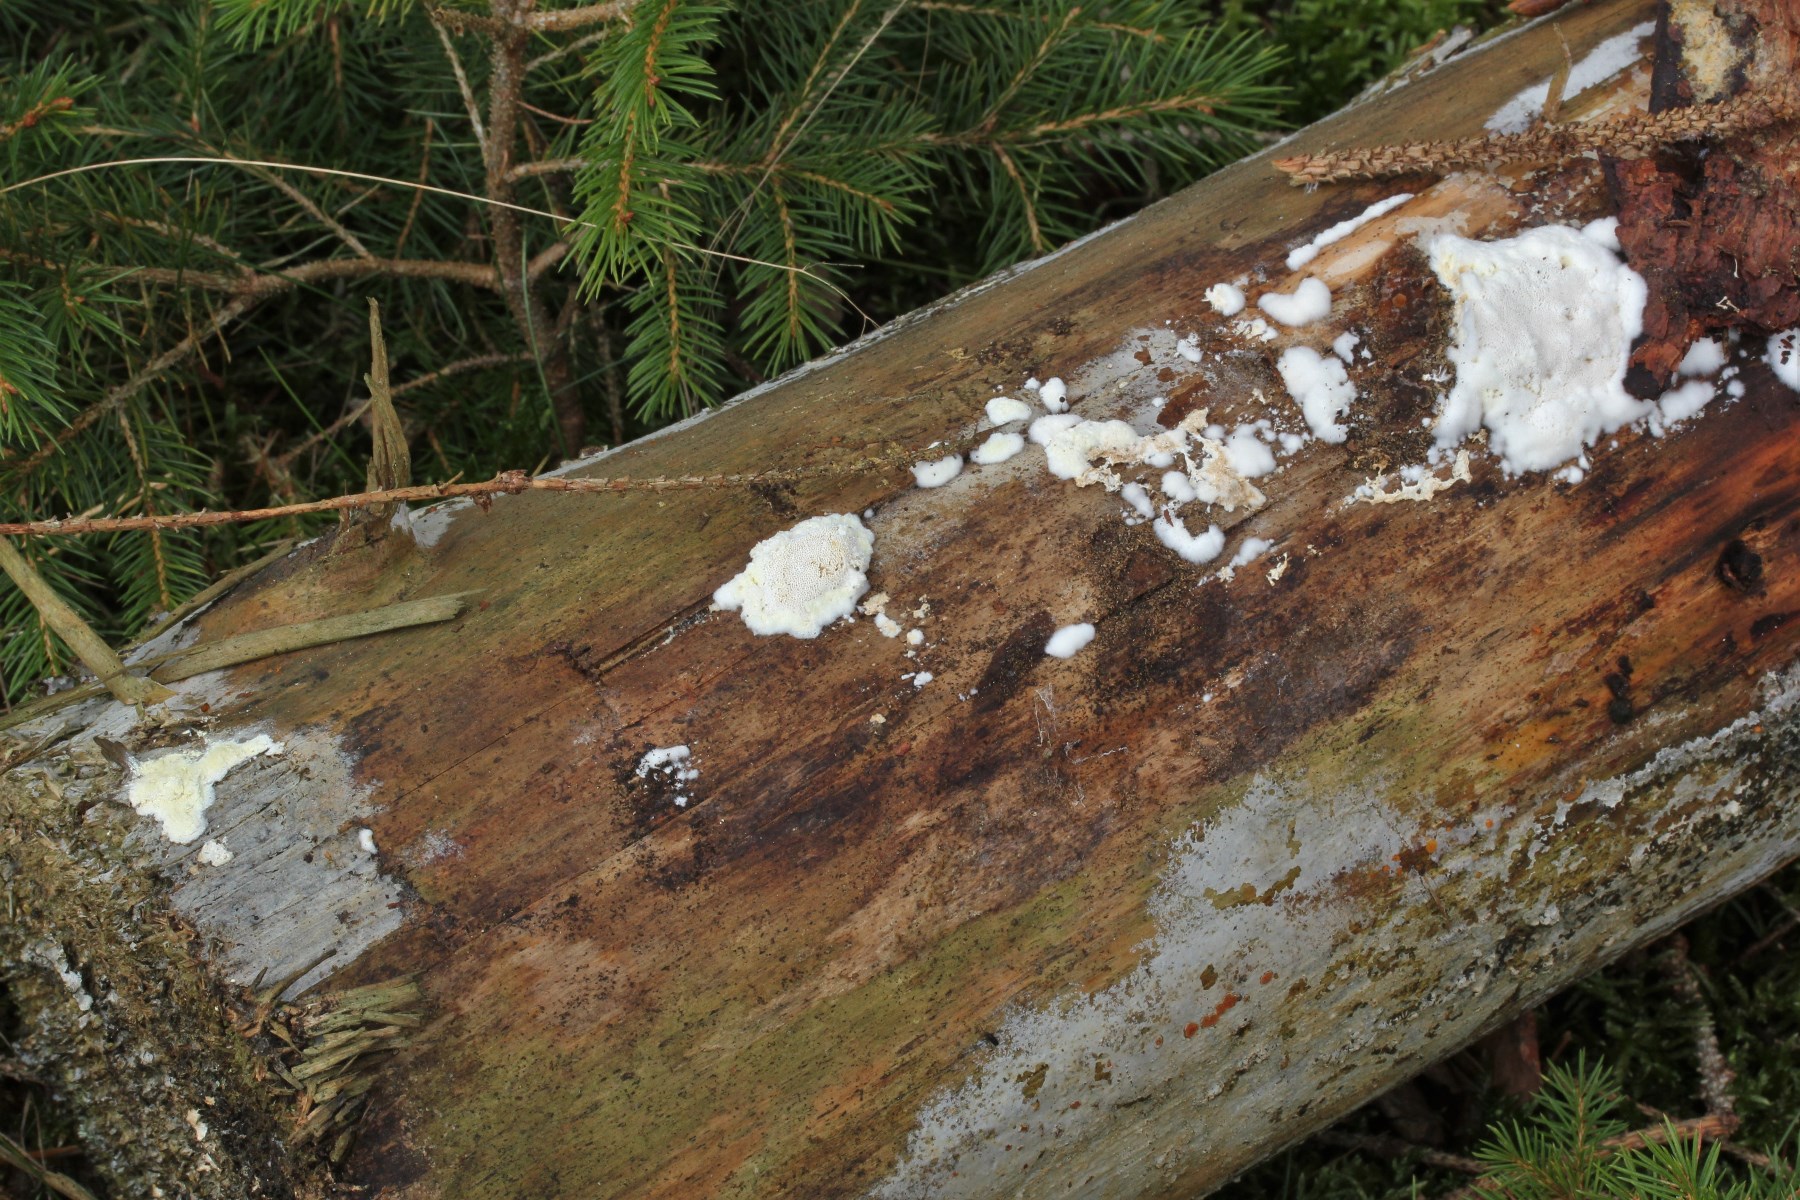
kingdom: Fungi
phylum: Basidiomycota
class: Agaricomycetes
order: Polyporales
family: Dacryobolaceae
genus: Oligoporus
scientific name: Oligoporus rennyi
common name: pudret kødporesvamp
